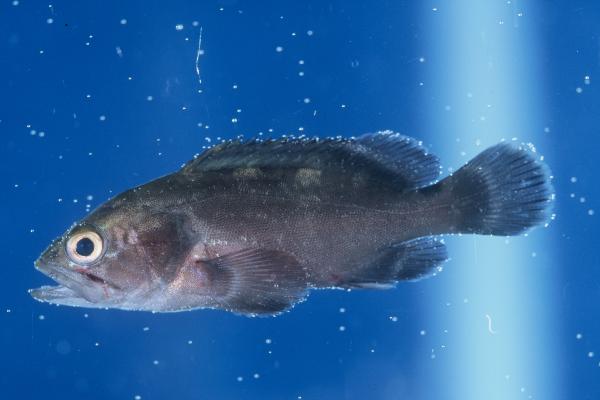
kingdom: Animalia
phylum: Chordata
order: Perciformes
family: Serranidae
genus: Epinephelus
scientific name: Epinephelus chabaudi
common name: Moustache grouper
